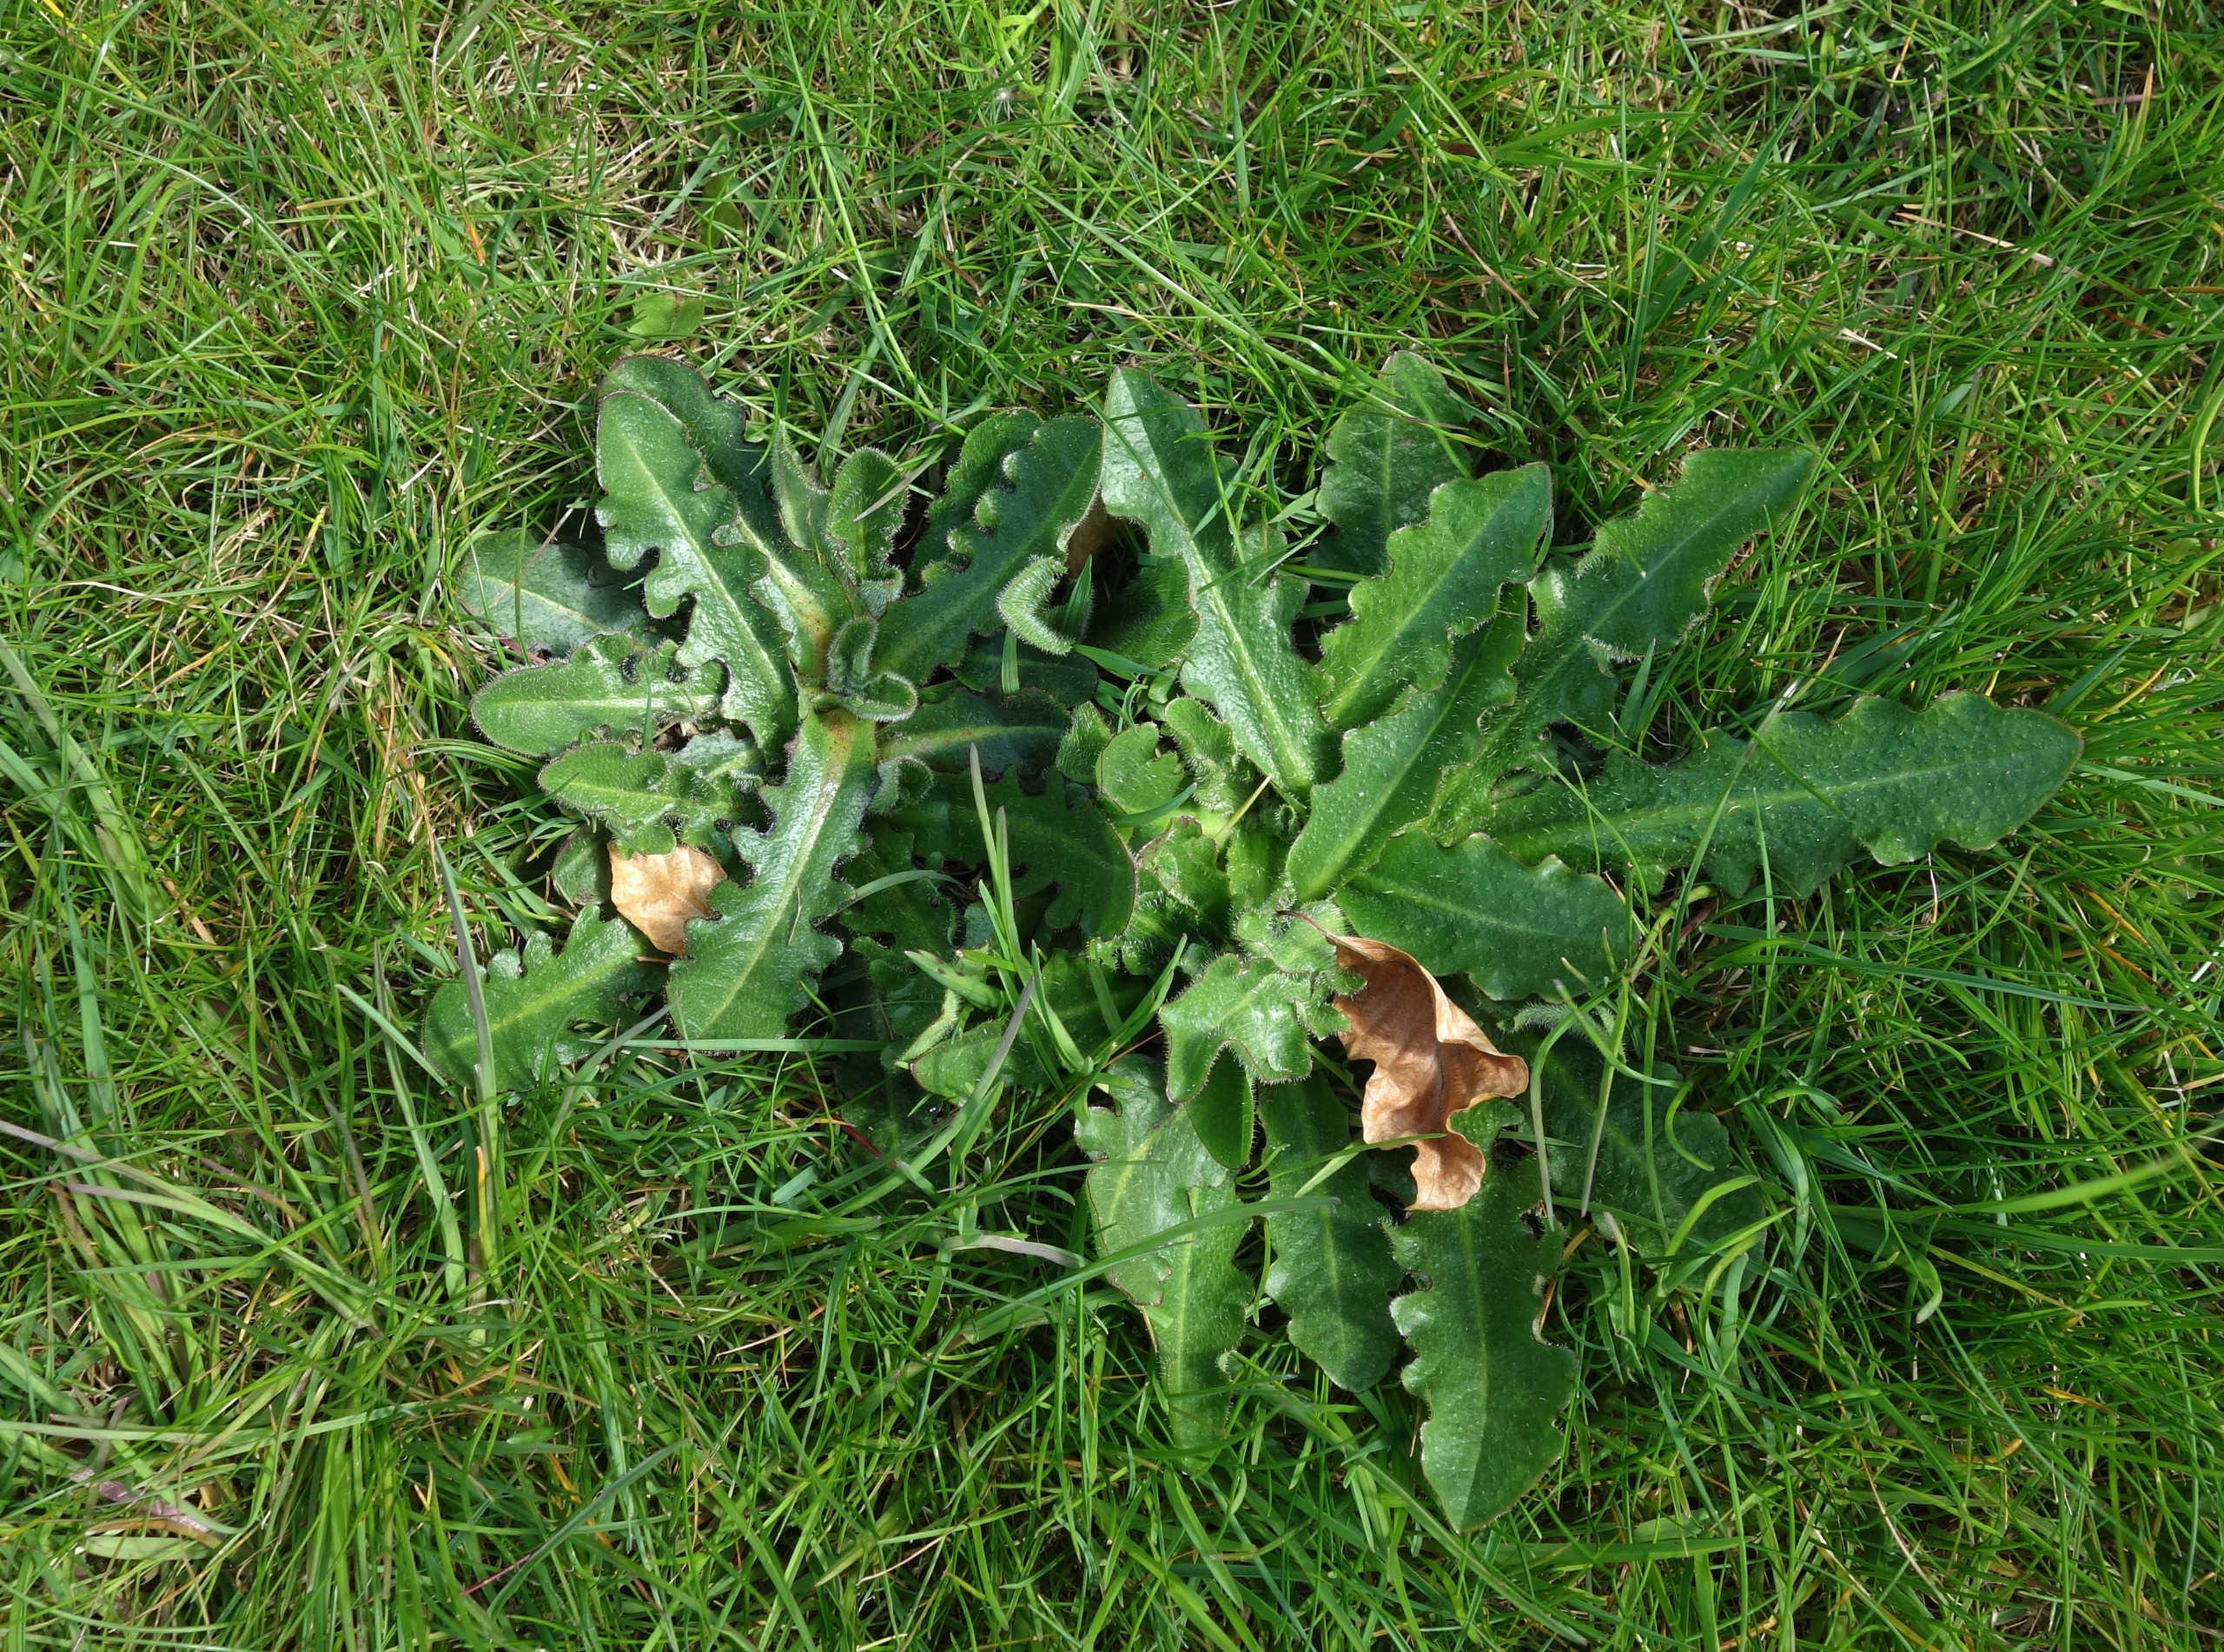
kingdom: Plantae
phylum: Tracheophyta
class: Magnoliopsida
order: Asterales
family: Asteraceae
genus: Hypochaeris
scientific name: Hypochaeris radicata
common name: Almindelig kongepen
